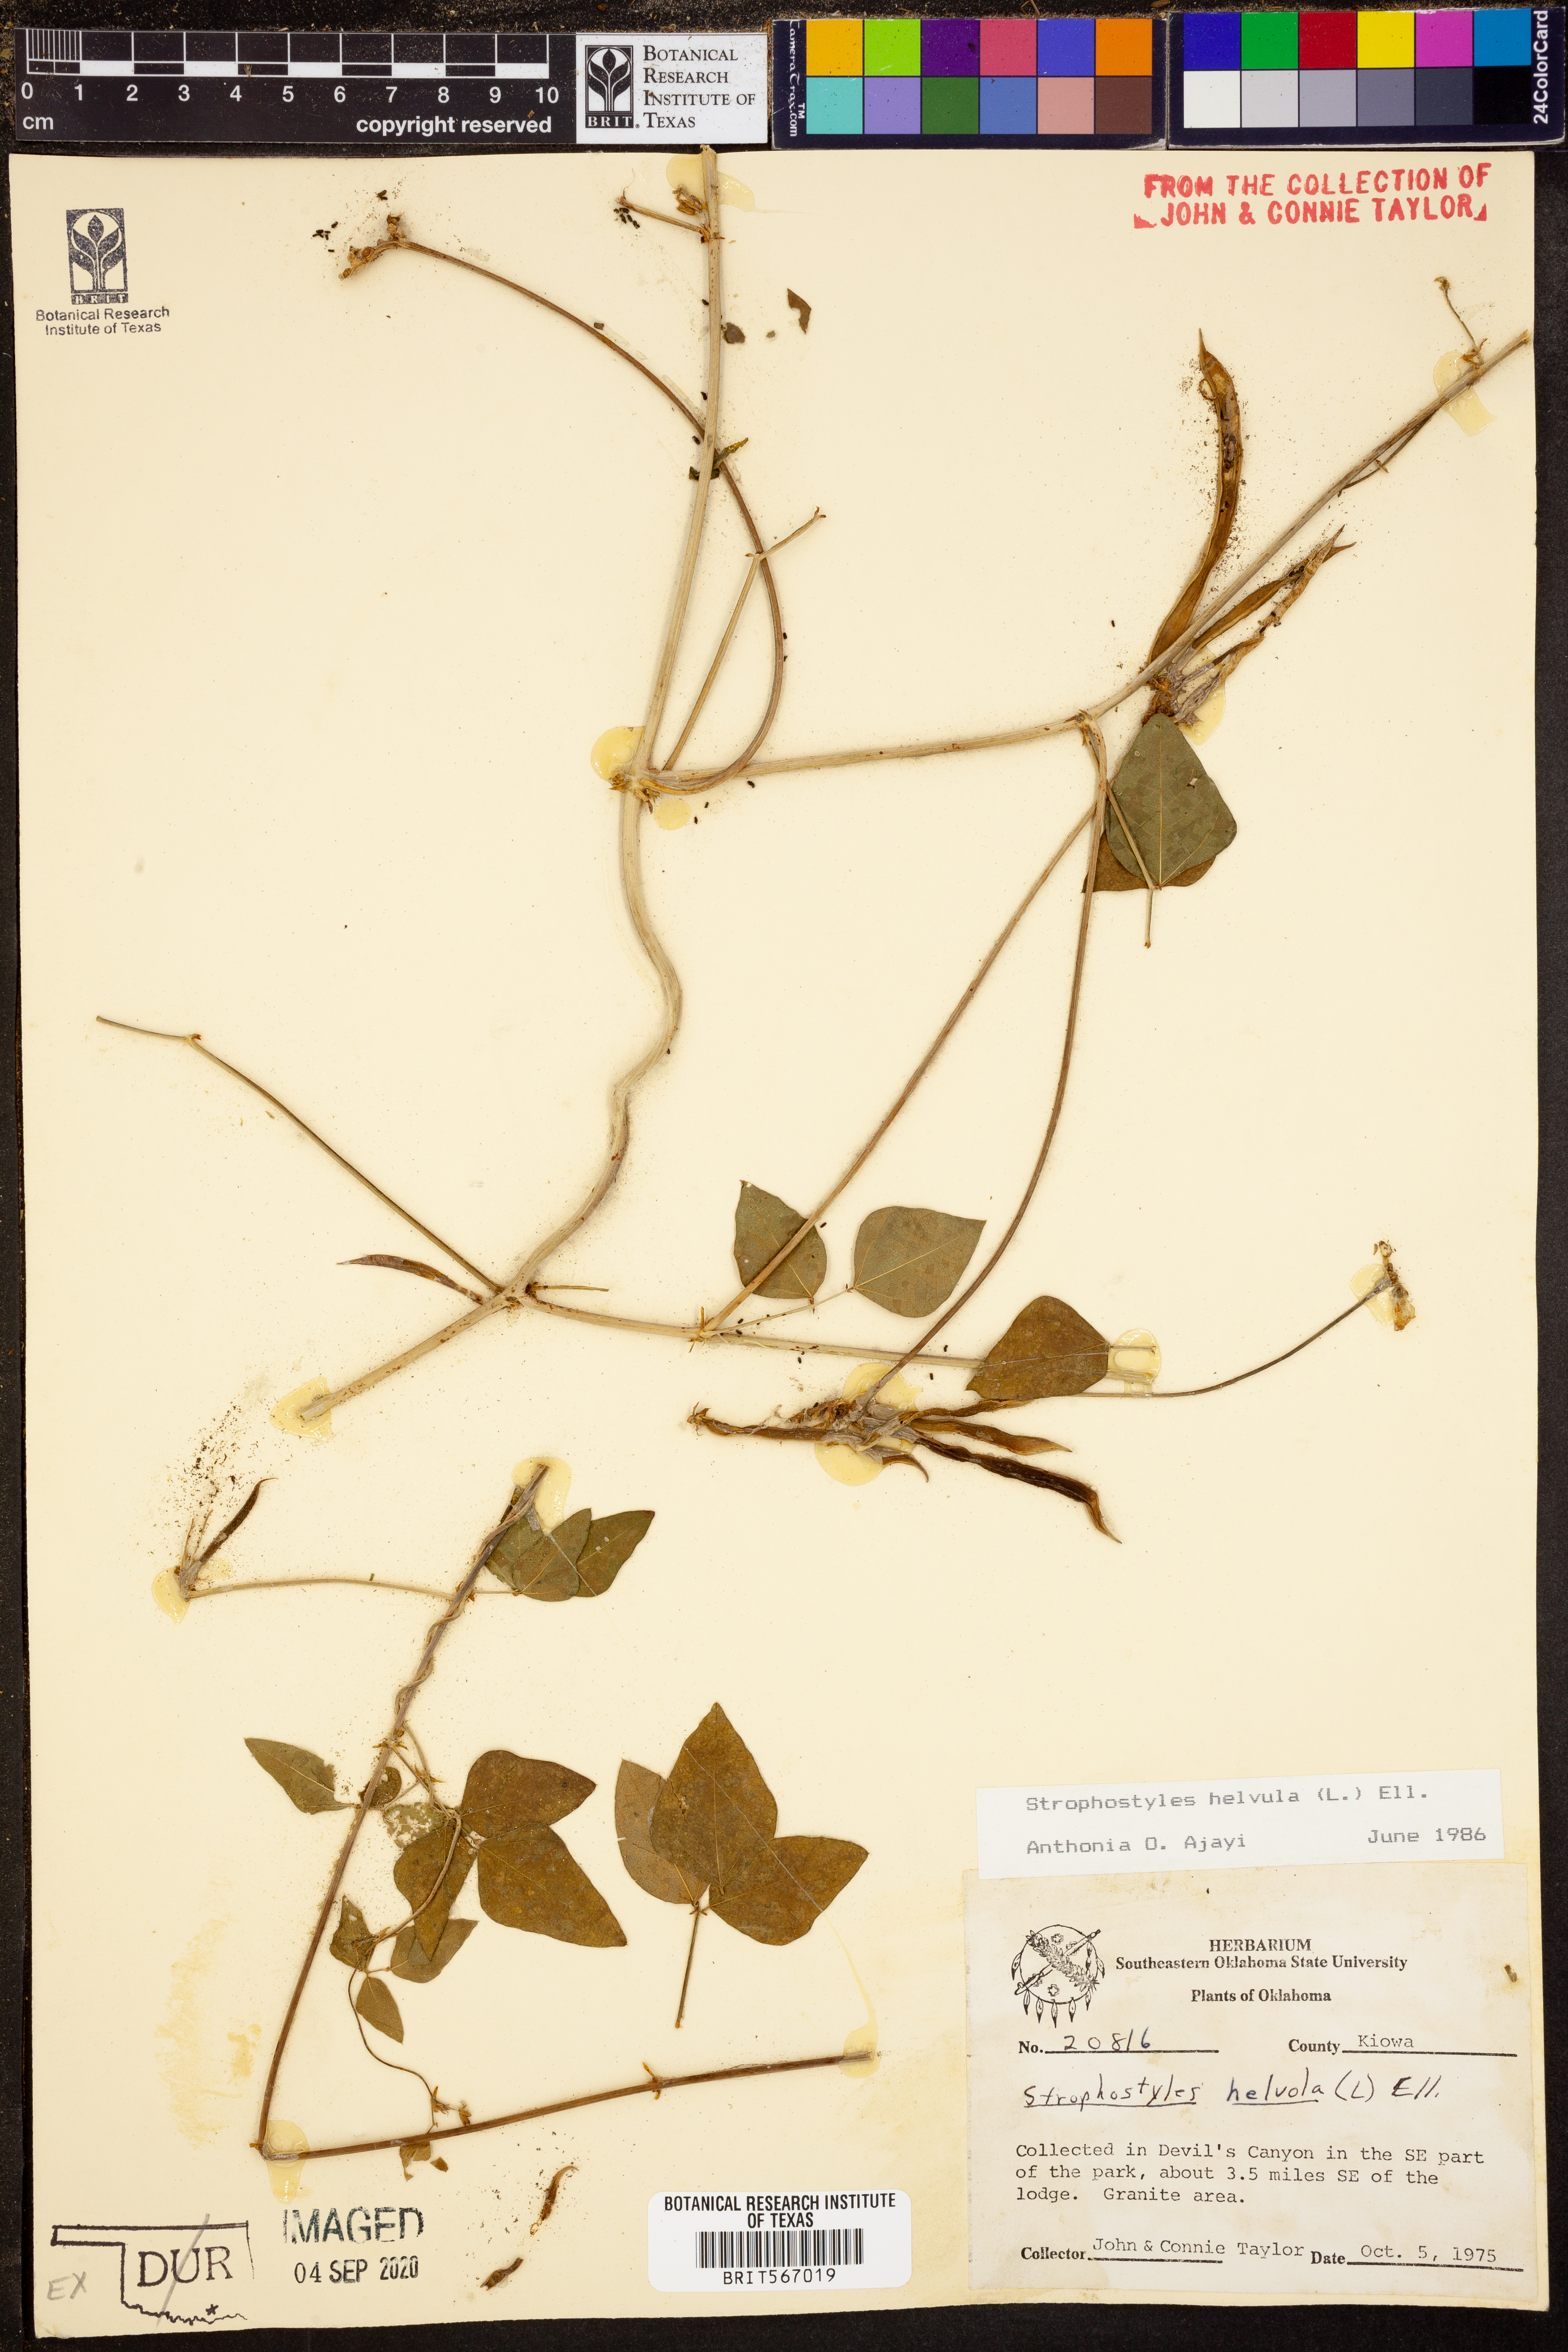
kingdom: Plantae
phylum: Tracheophyta
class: Magnoliopsida
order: Fabales
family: Fabaceae
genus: Strophostyles
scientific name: Strophostyles helvula
